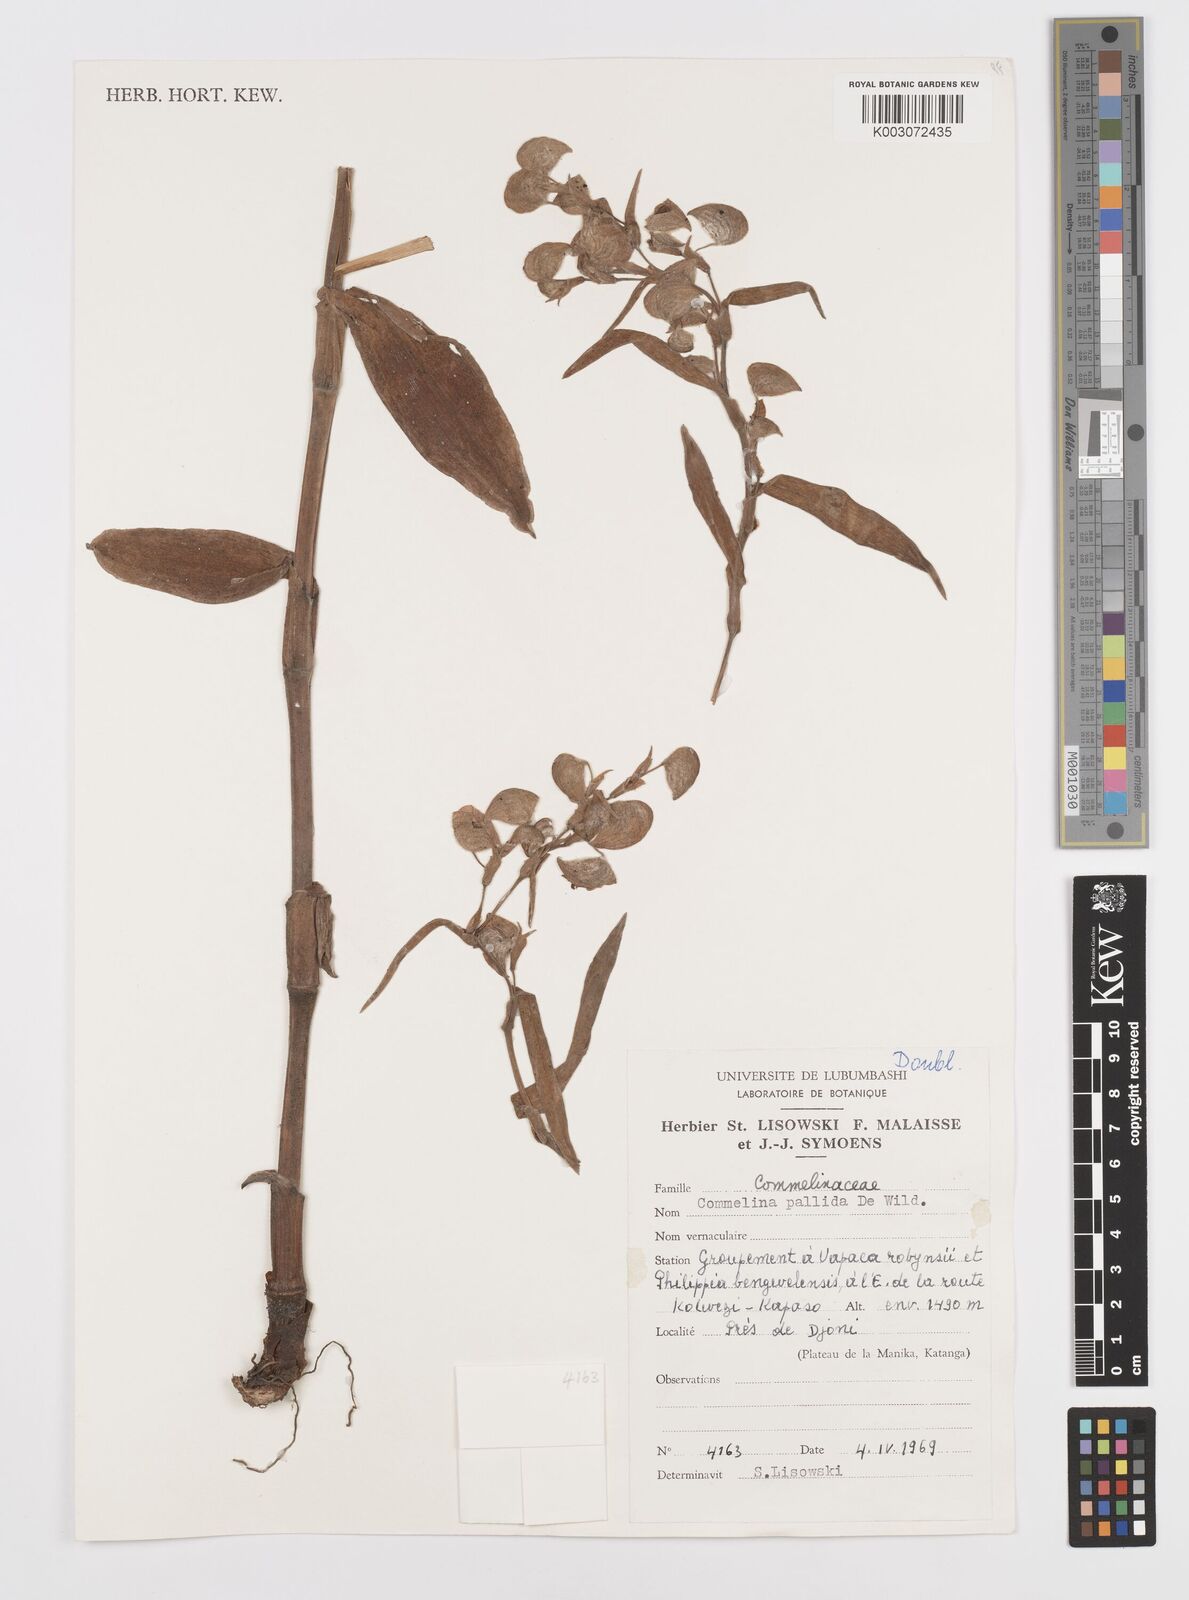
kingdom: Plantae
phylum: Tracheophyta
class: Liliopsida
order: Commelinales
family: Commelinaceae
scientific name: Commelinaceae
